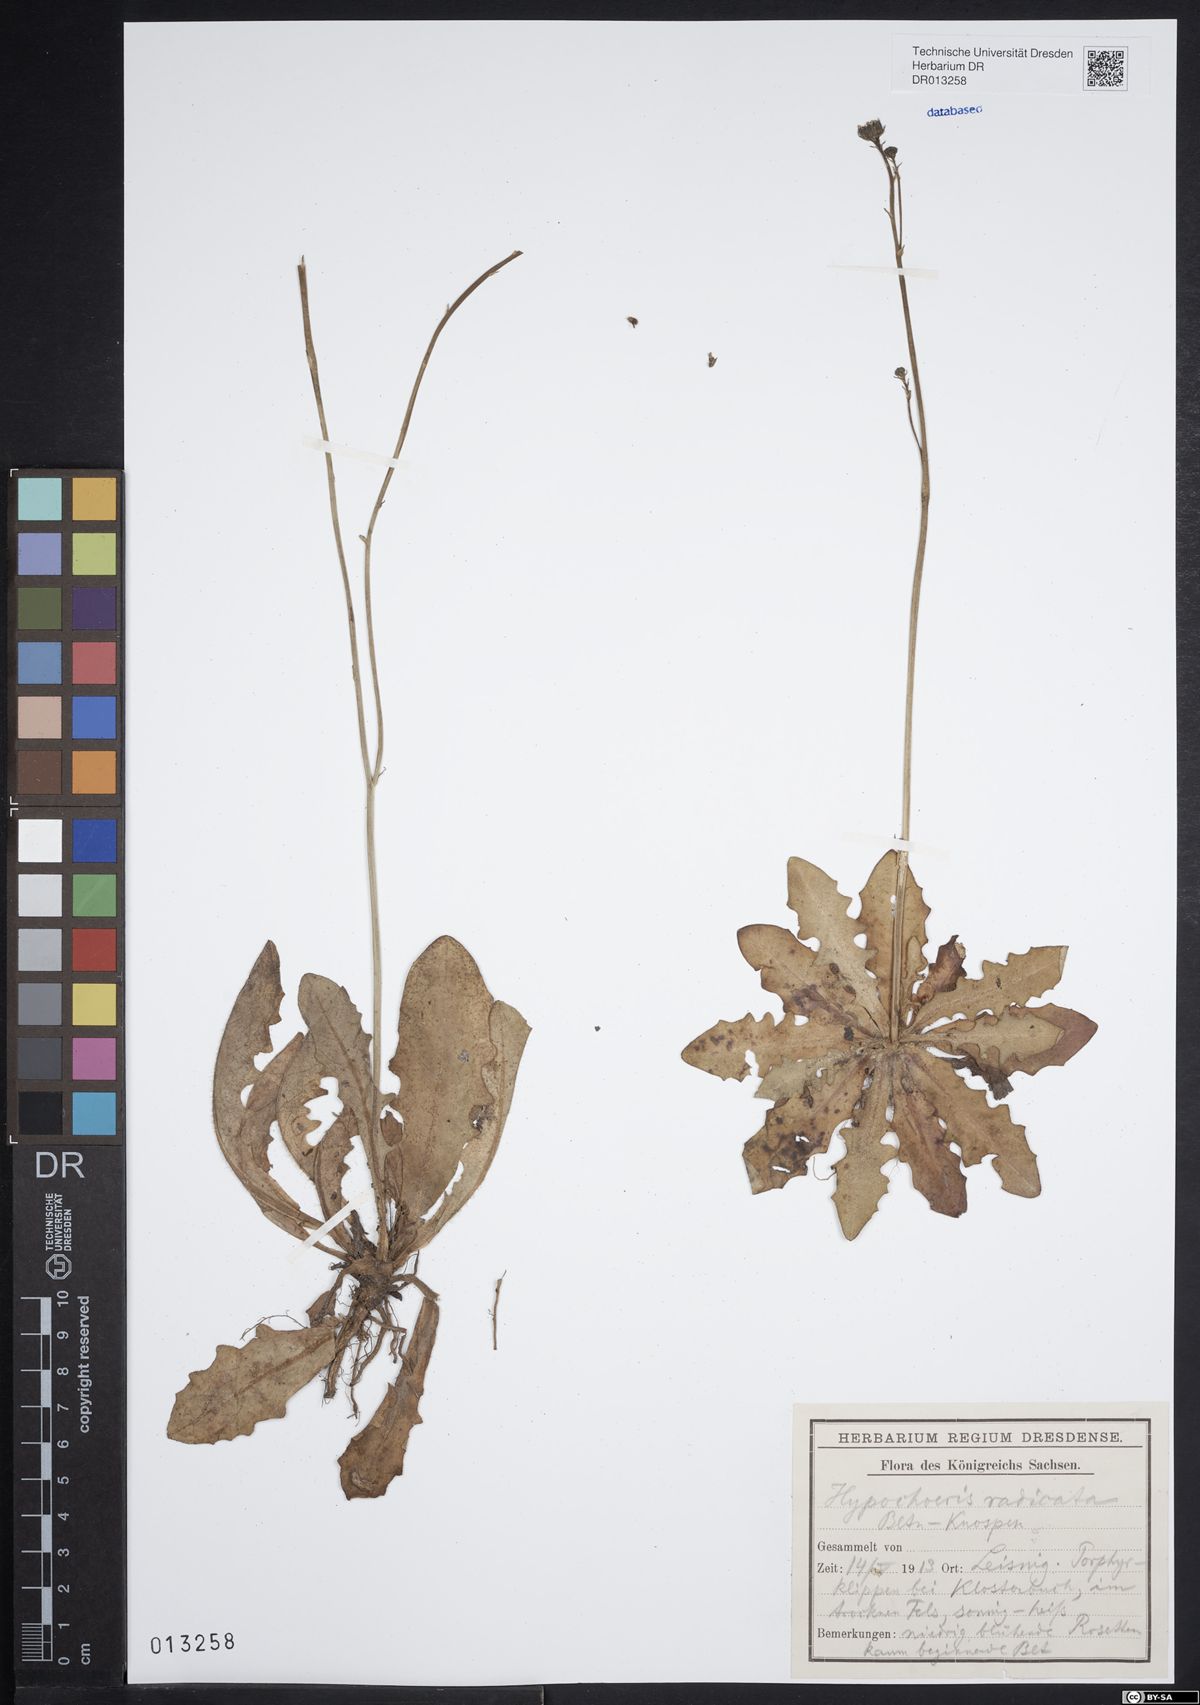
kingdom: Plantae
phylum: Tracheophyta
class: Magnoliopsida
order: Asterales
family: Asteraceae
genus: Hypochaeris
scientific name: Hypochaeris radicata
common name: Flatweed
